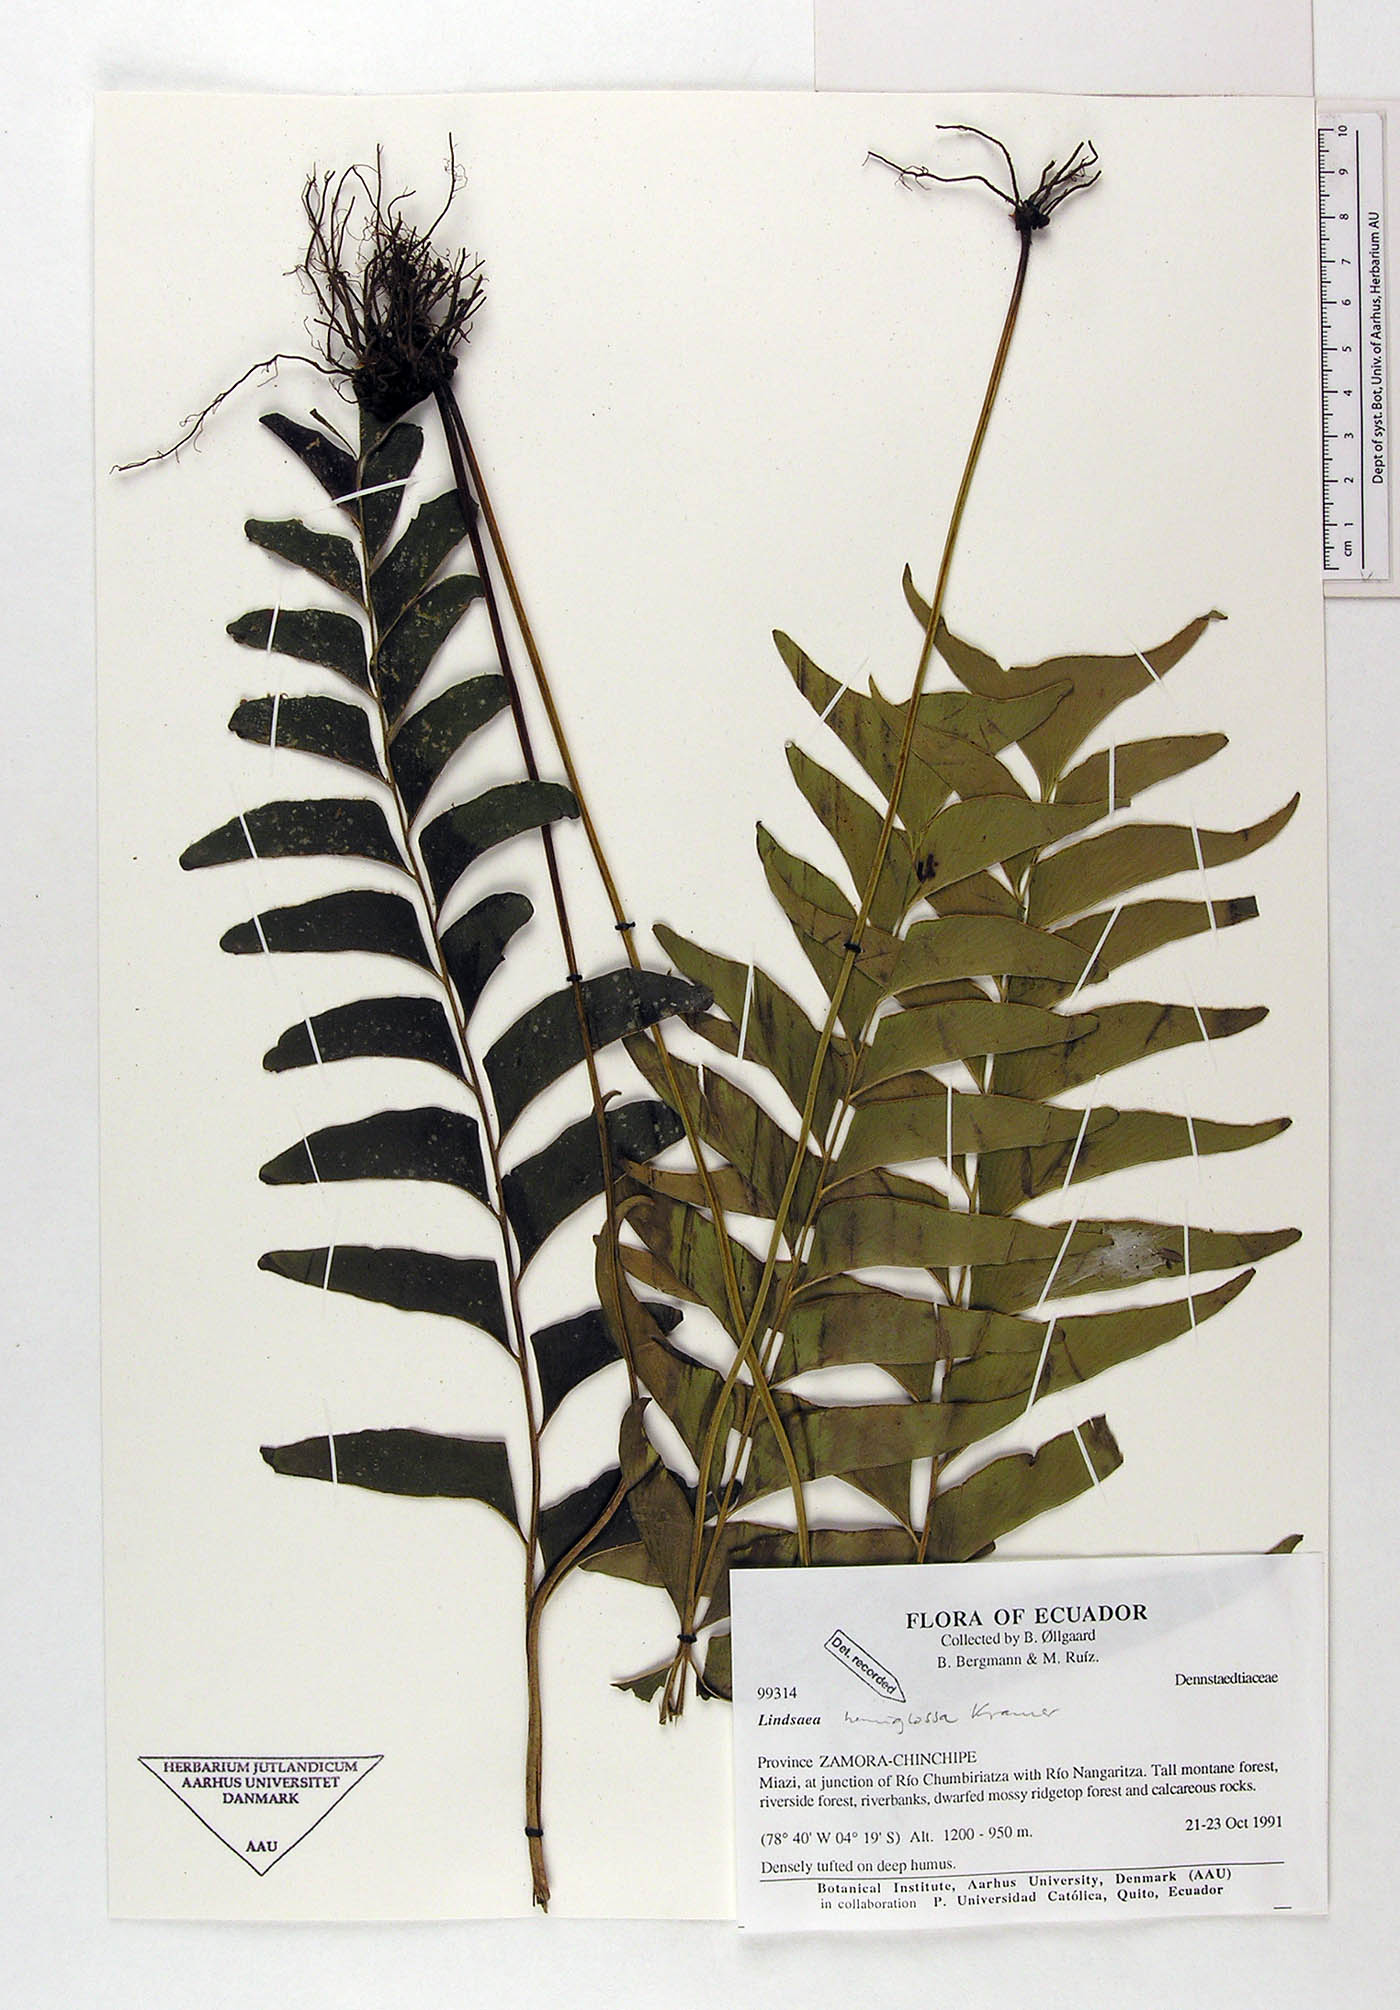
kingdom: Plantae
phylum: Tracheophyta
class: Polypodiopsida
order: Polypodiales
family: Lindsaeaceae
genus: Lindsaea
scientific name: Lindsaea hemiglossa
